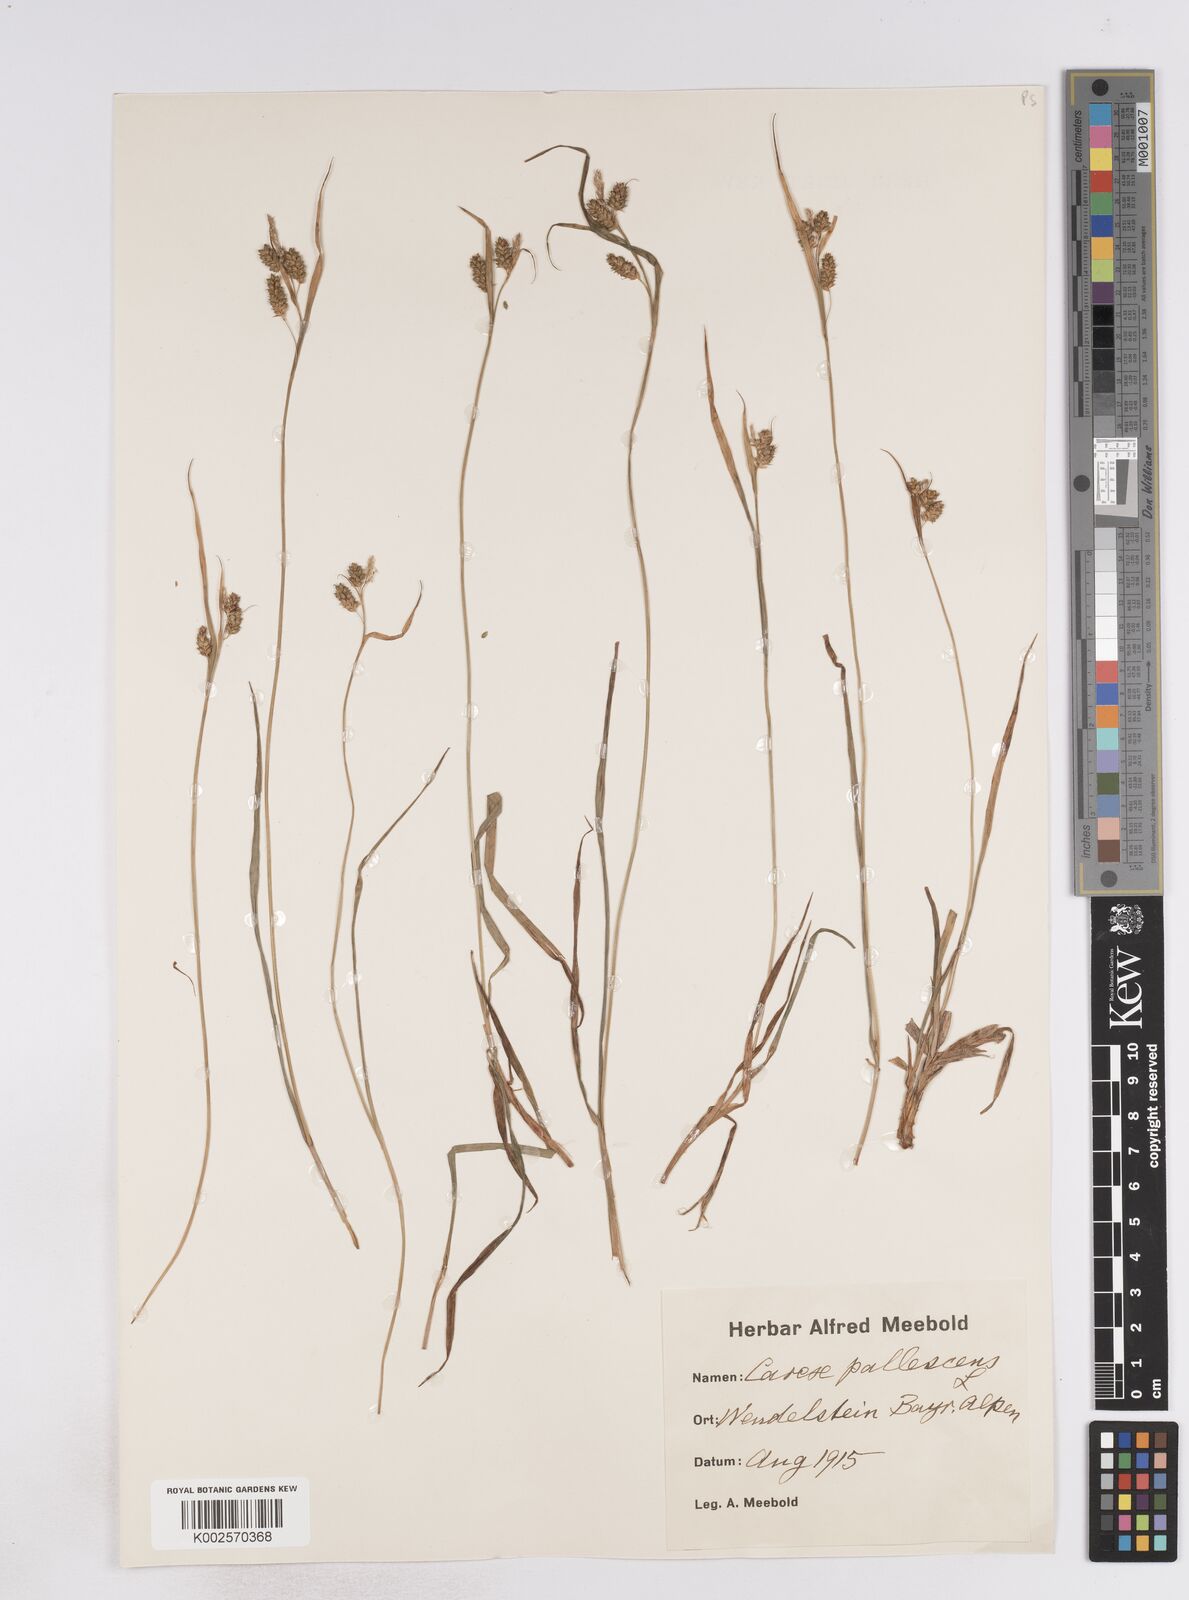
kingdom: Plantae
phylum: Tracheophyta
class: Liliopsida
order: Poales
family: Cyperaceae
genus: Carex
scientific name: Carex pallescens
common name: Pale sedge
